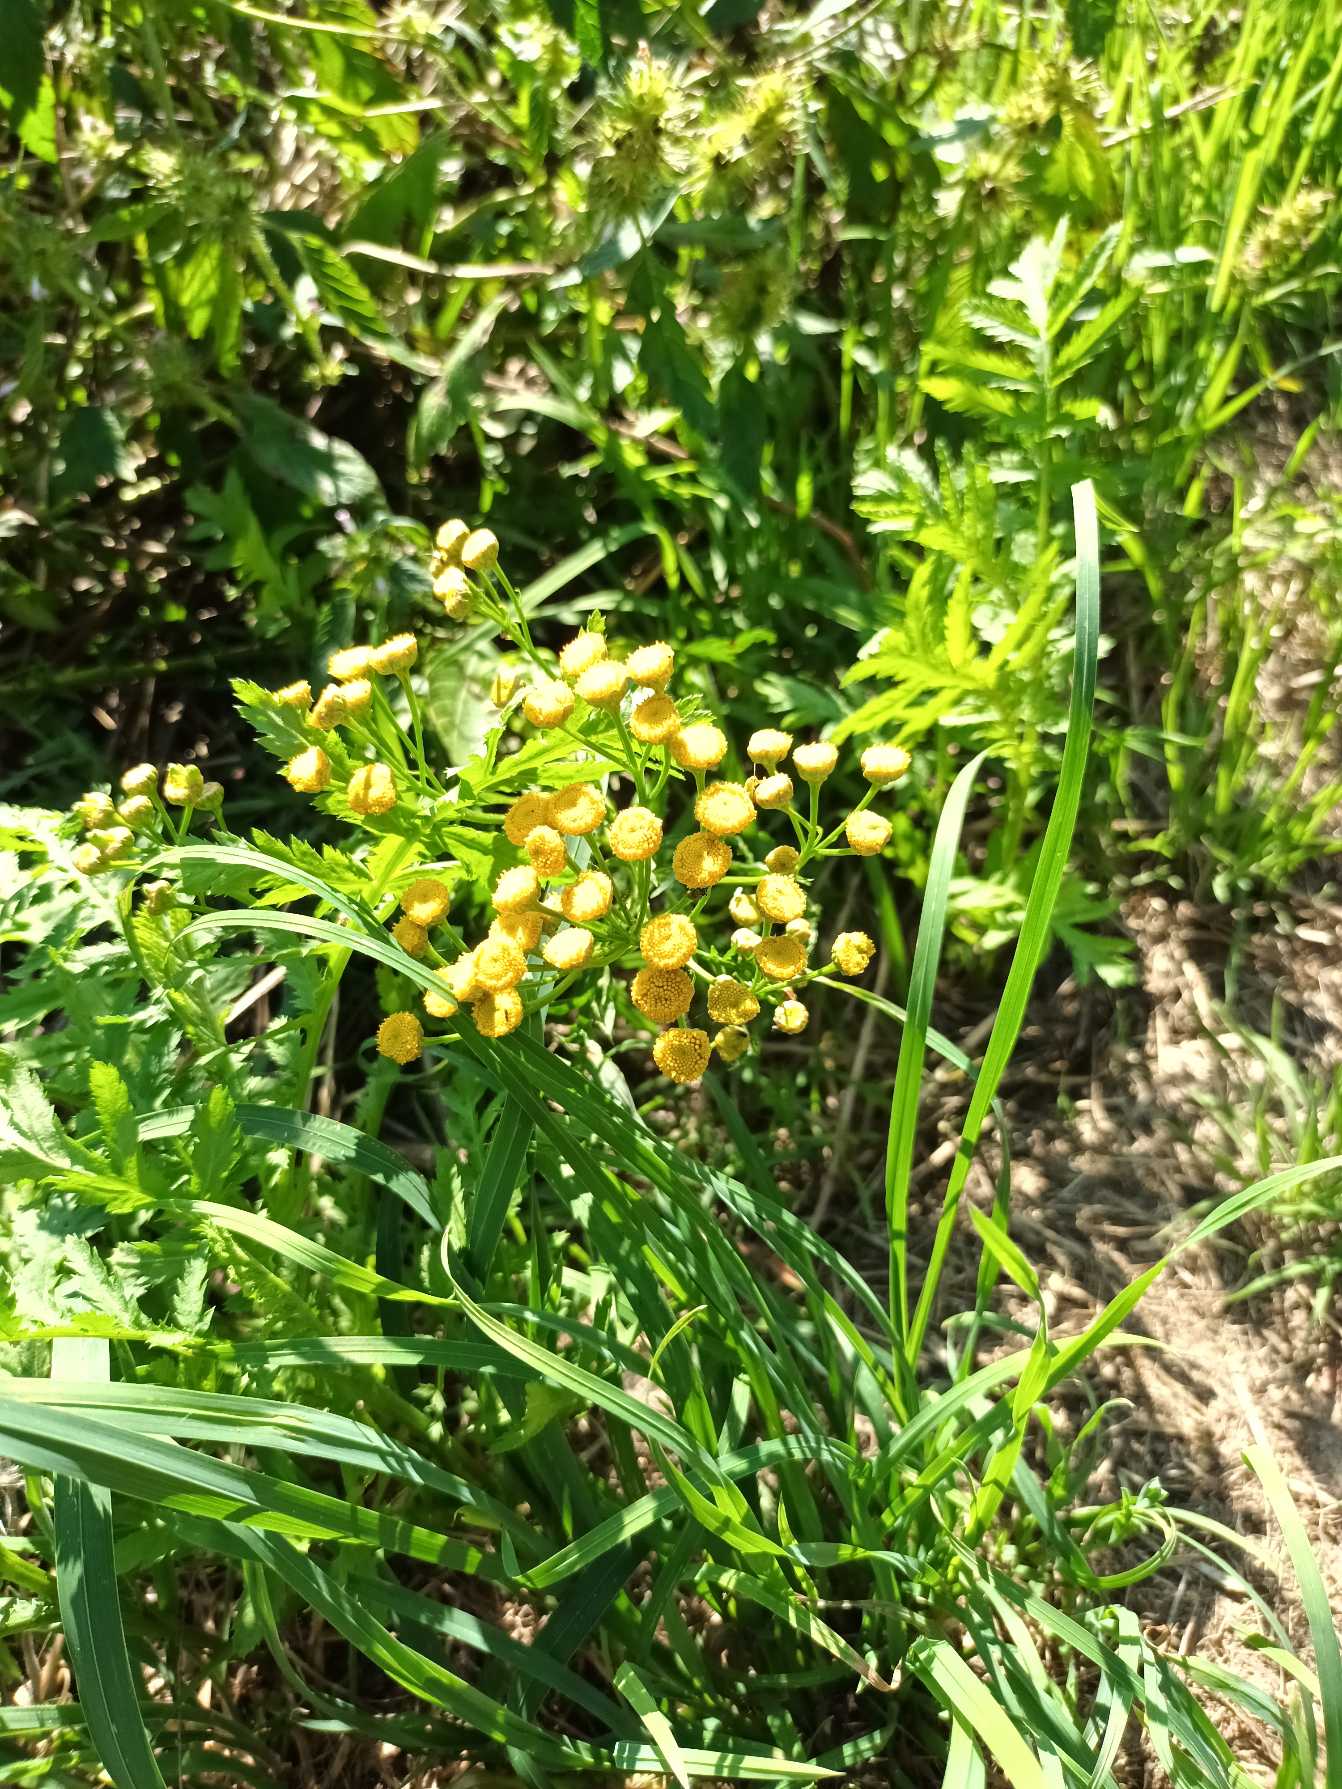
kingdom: Plantae
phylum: Tracheophyta
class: Magnoliopsida
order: Asterales
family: Asteraceae
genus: Tanacetum
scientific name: Tanacetum vulgare
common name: Rejnfan
